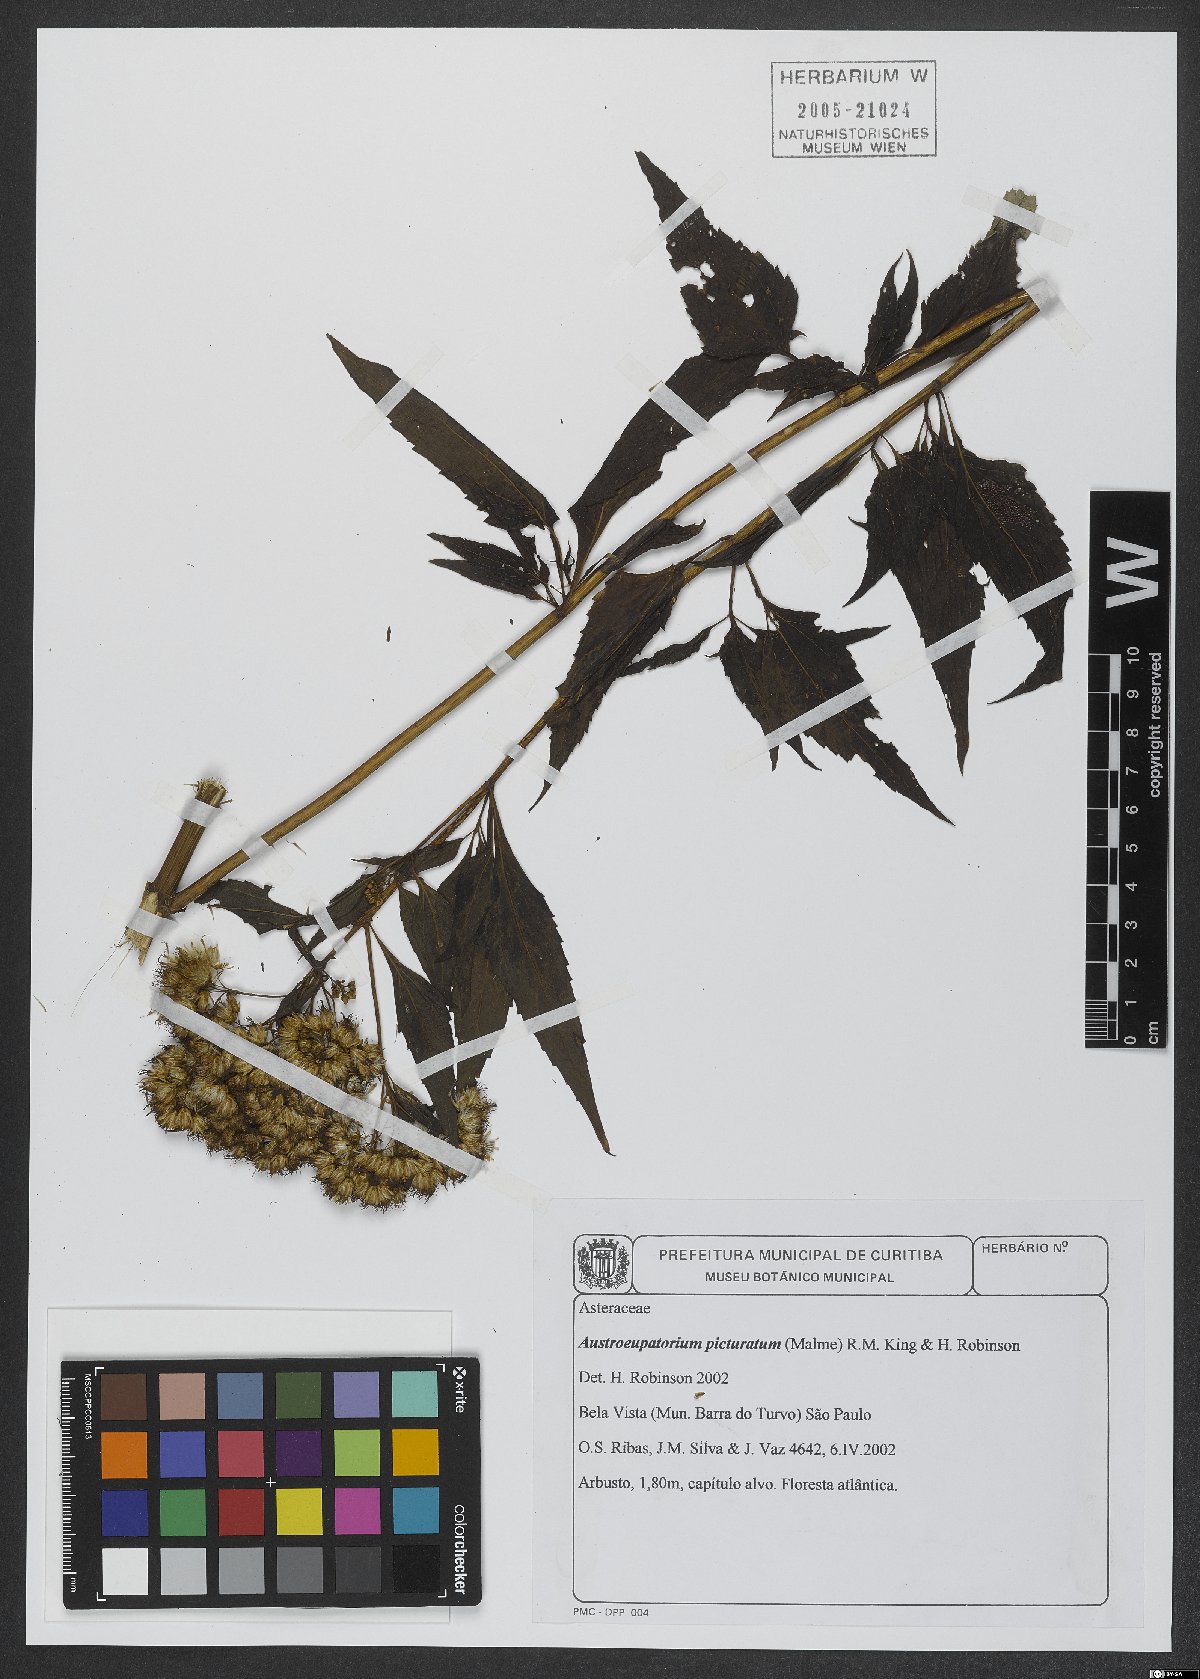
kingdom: Plantae
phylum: Tracheophyta
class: Magnoliopsida
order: Asterales
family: Asteraceae
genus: Austroeupatorium
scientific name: Austroeupatorium picturatum
